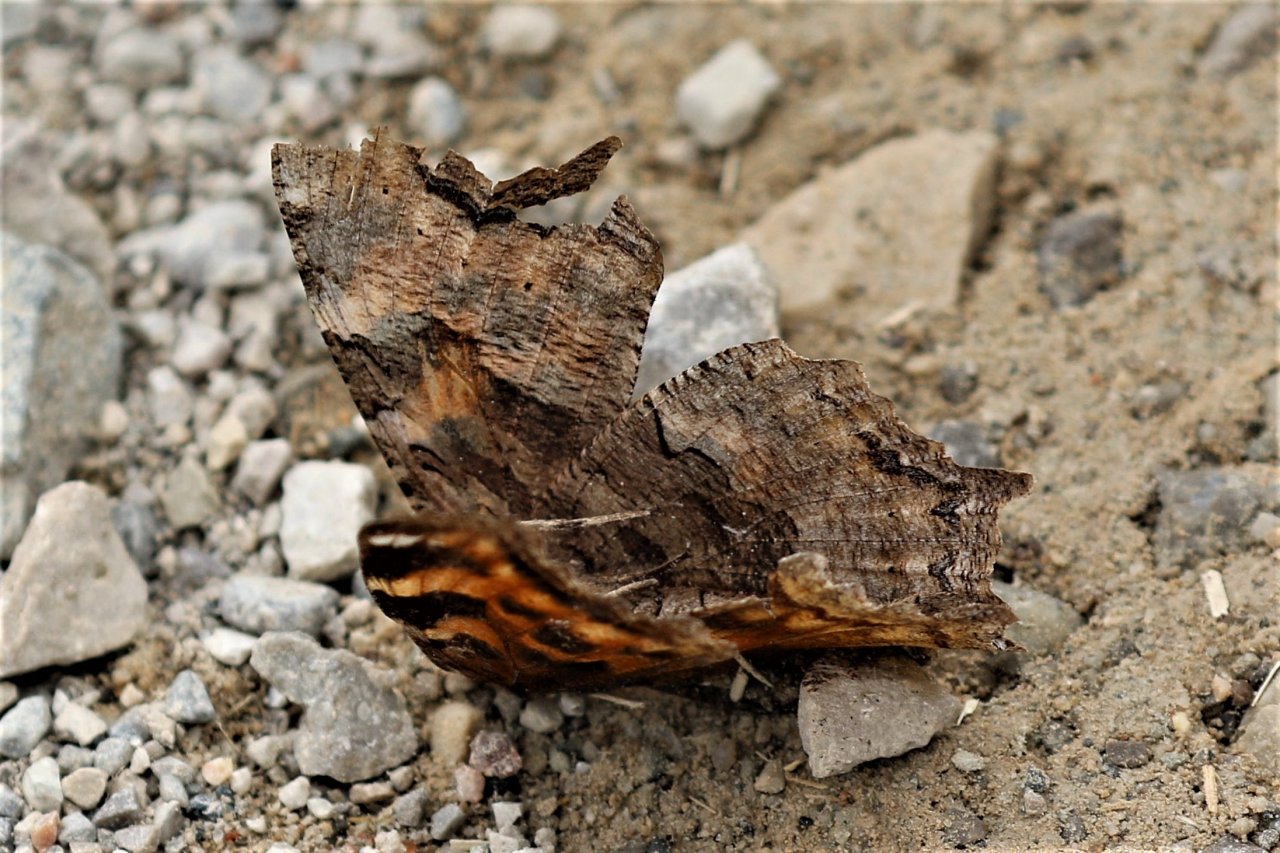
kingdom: Animalia
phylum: Arthropoda
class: Insecta
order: Lepidoptera
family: Nymphalidae
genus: Polygonia
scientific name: Polygonia vaualbum
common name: Compton Tortoiseshell
